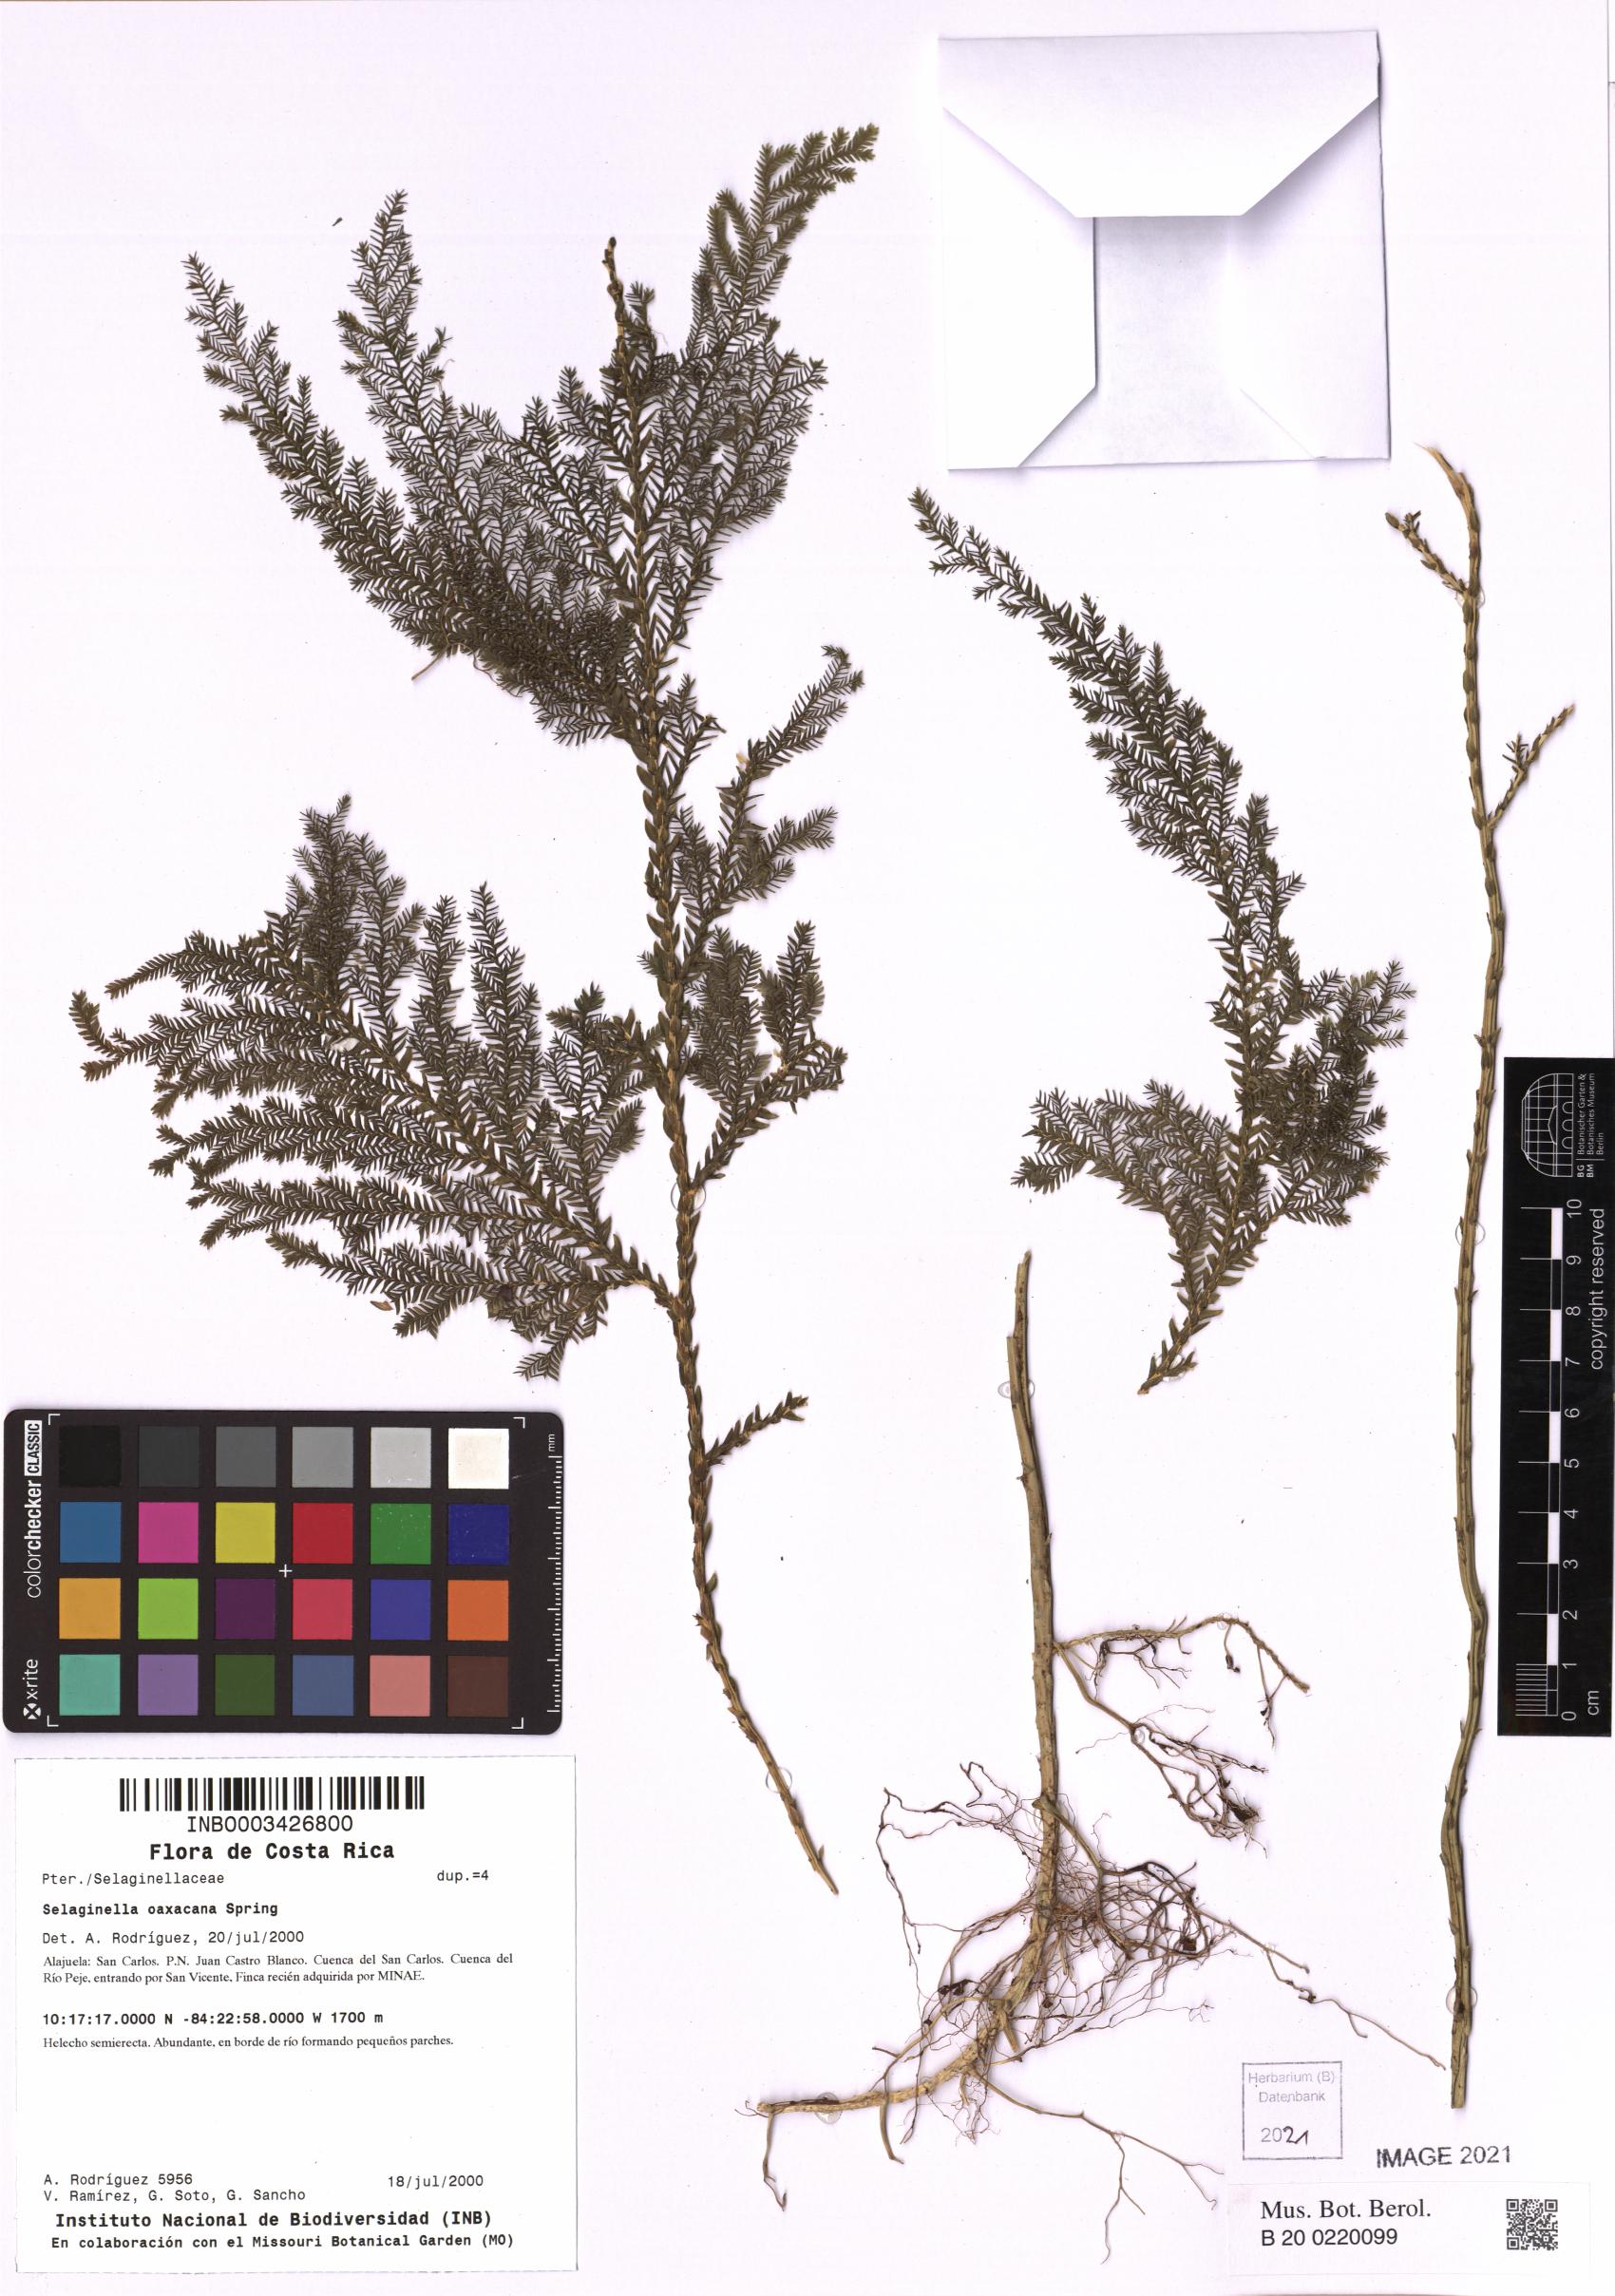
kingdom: Plantae
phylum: Tracheophyta
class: Lycopodiopsida
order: Selaginellales
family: Selaginellaceae
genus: Selaginella
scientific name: Selaginella oaxacana
